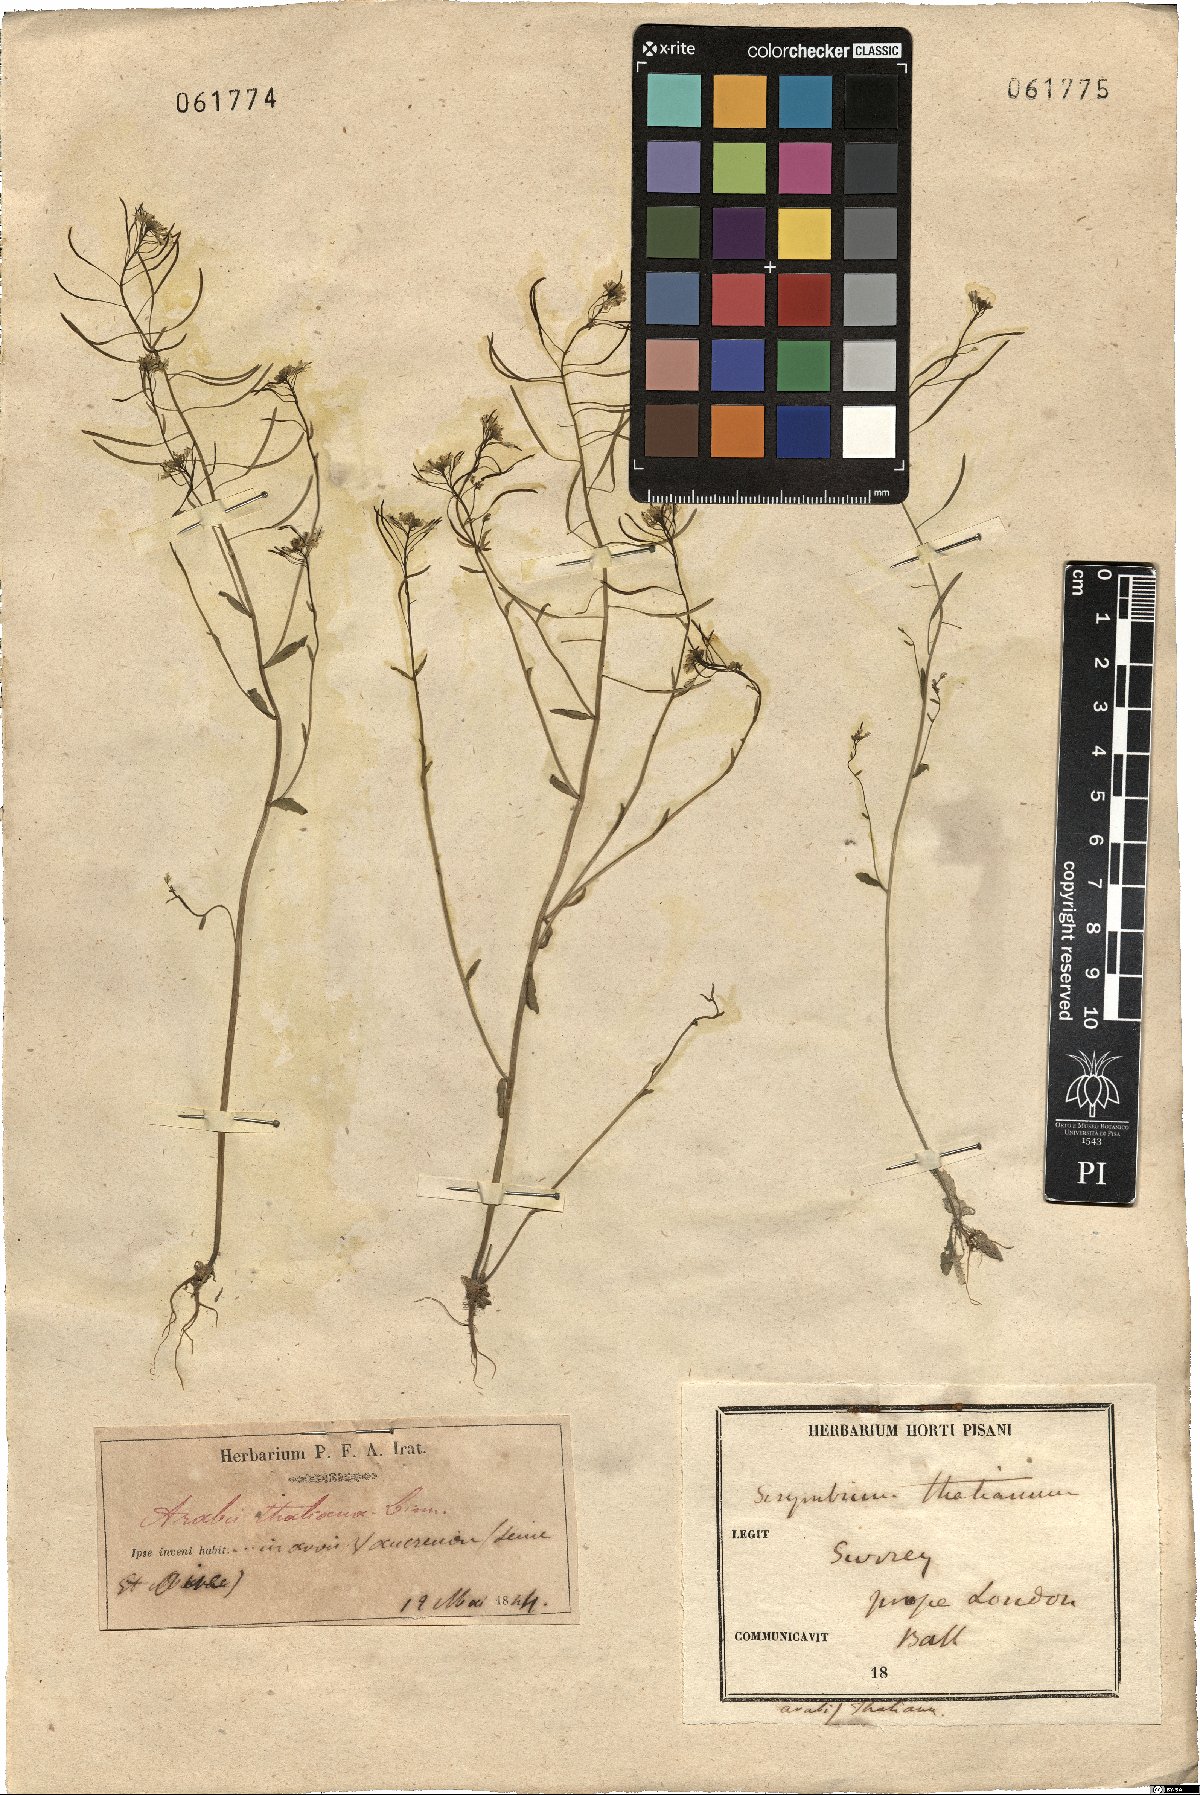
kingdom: Plantae
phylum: Tracheophyta
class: Magnoliopsida
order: Brassicales
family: Brassicaceae
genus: Arabidopsis
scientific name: Arabidopsis thaliana
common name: Thale cress
